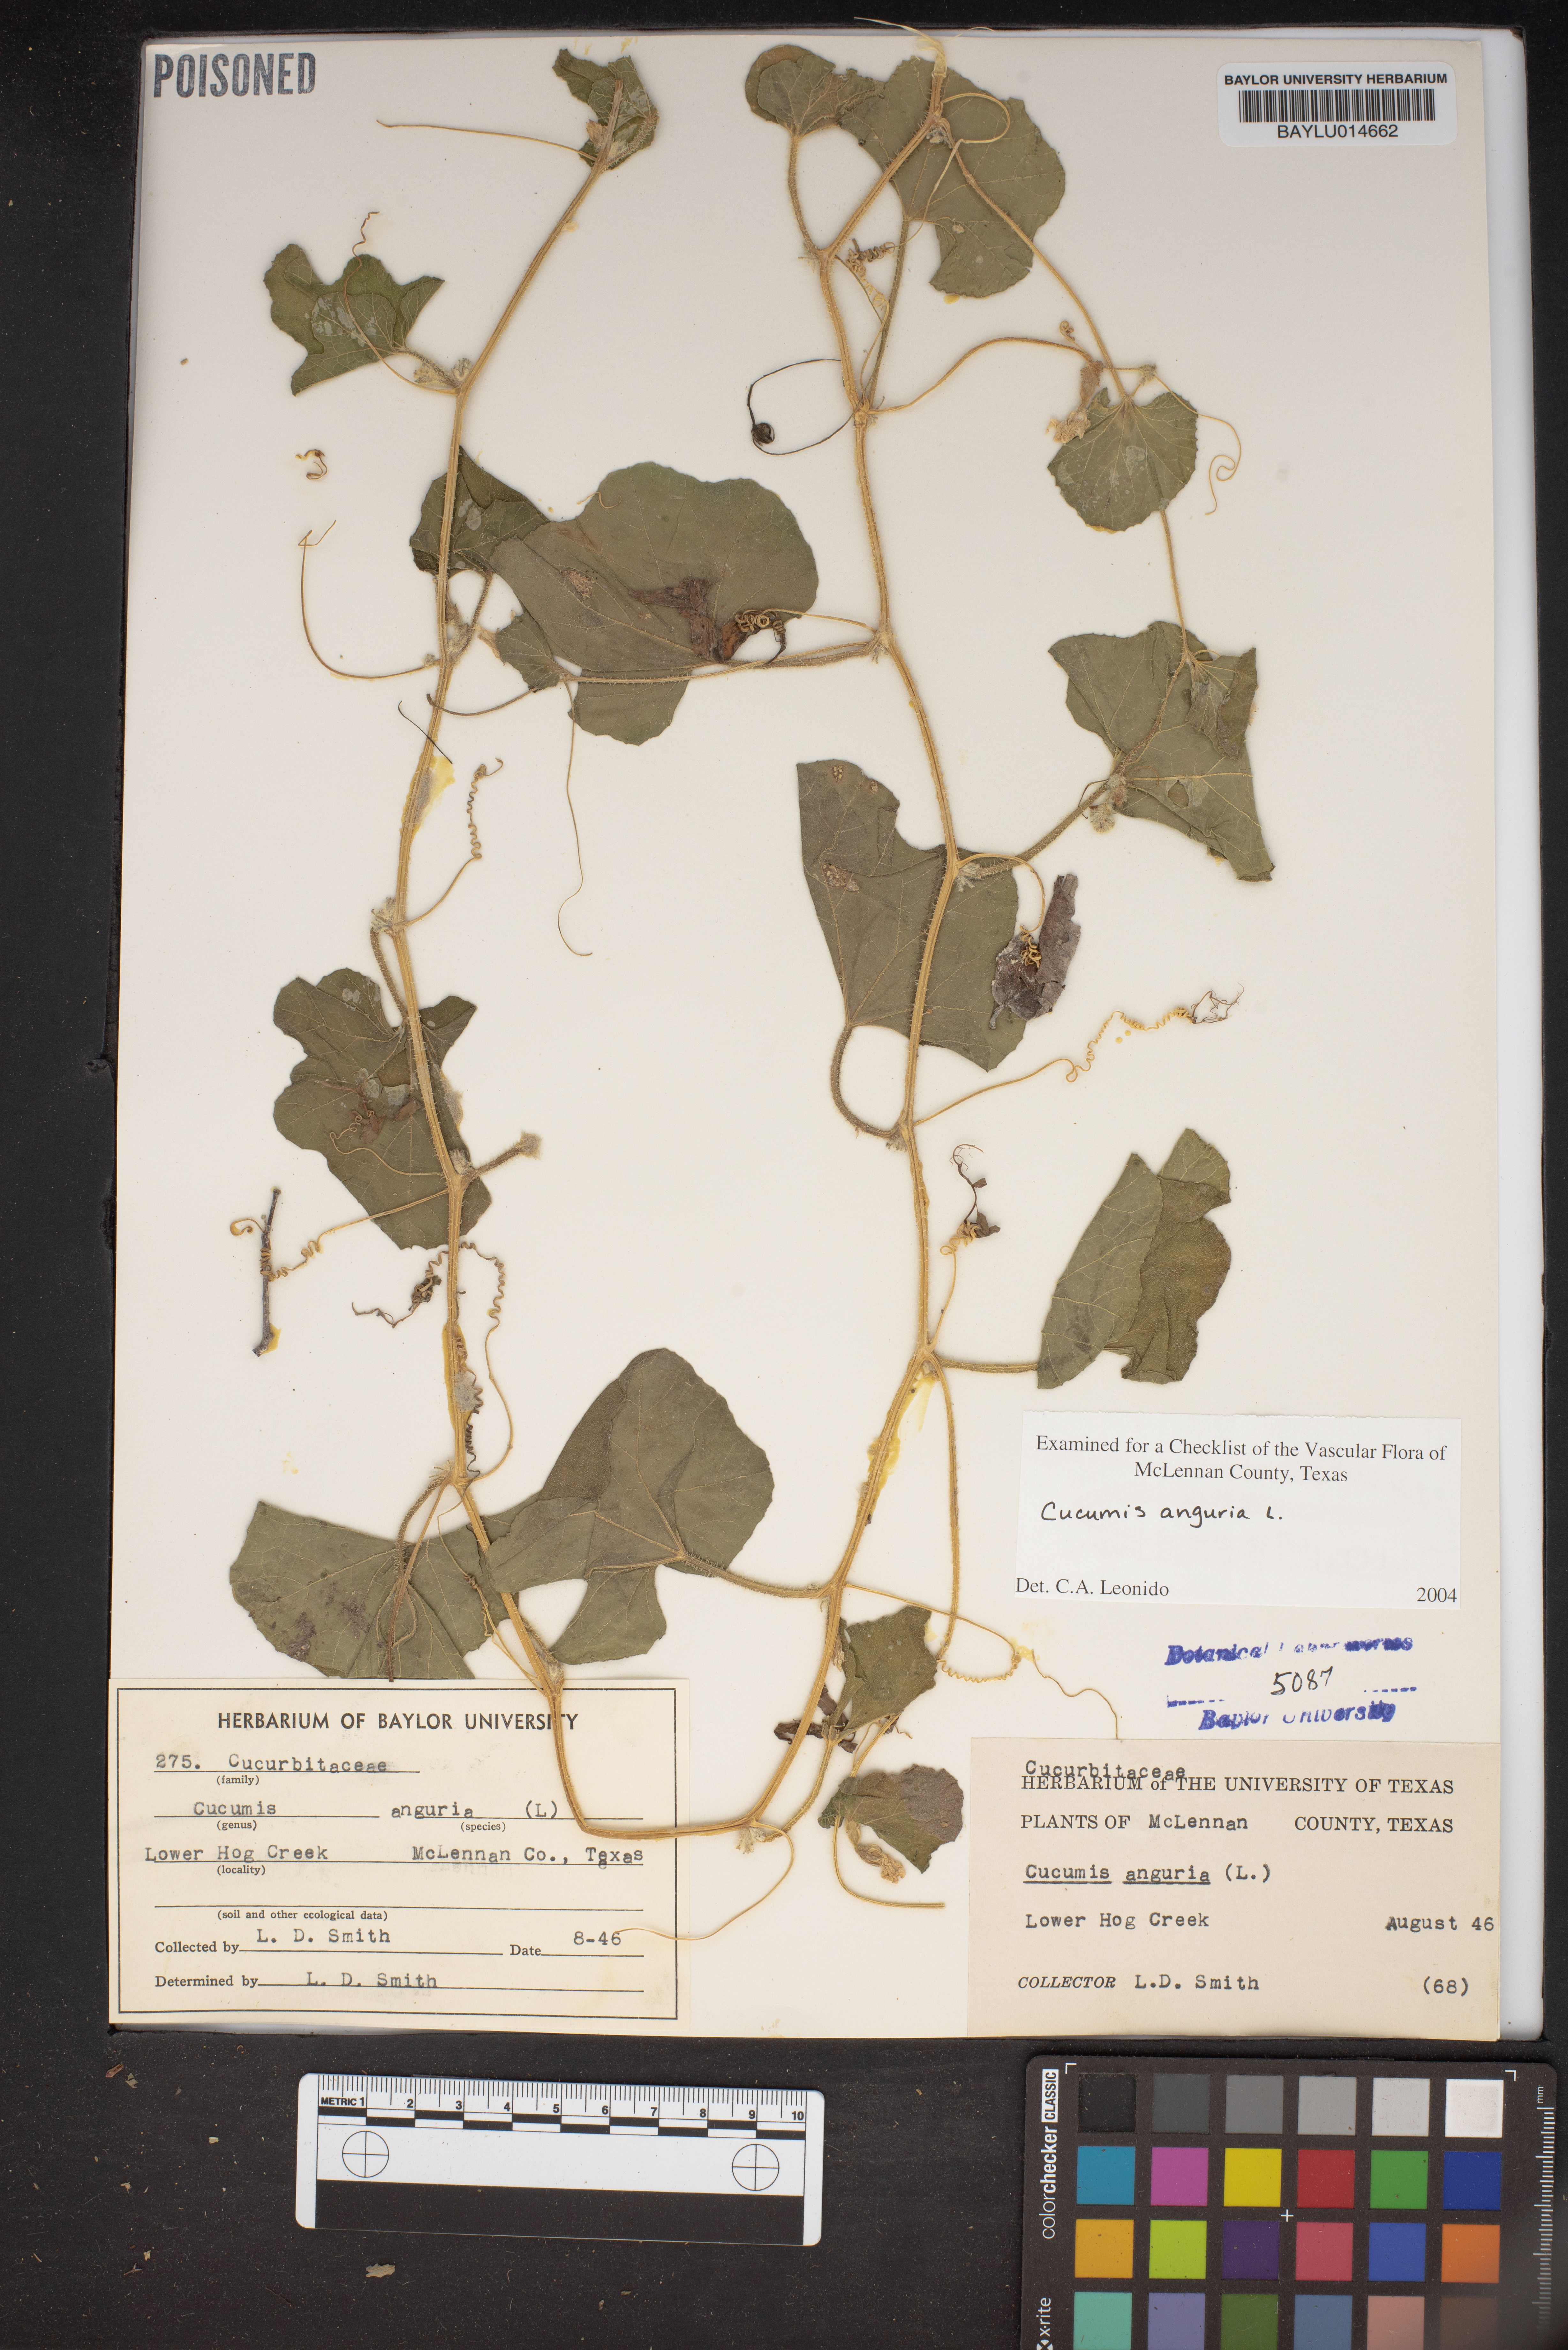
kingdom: Plantae
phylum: Tracheophyta
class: Magnoliopsida
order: Cucurbitales
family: Cucurbitaceae
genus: Cucumis
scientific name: Cucumis anguria
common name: West indian gherkin
